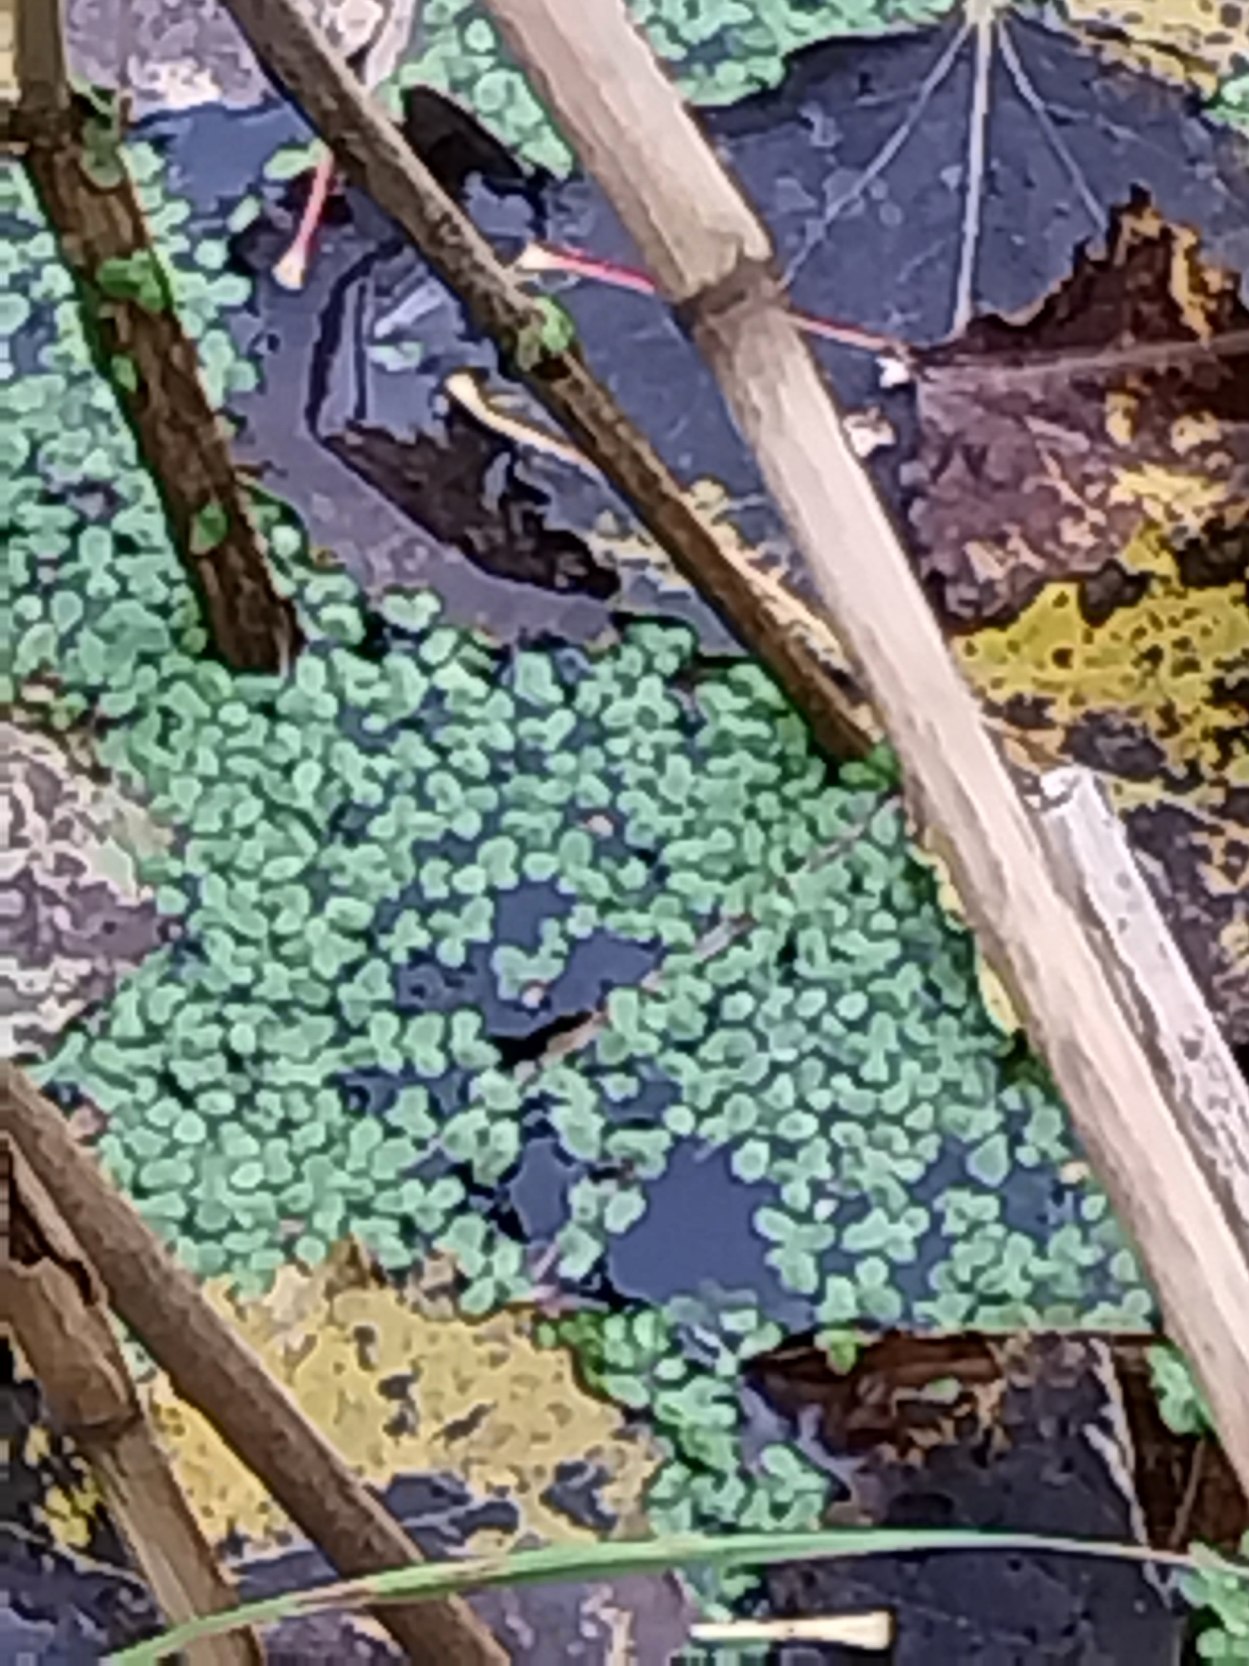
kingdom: Plantae
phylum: Tracheophyta
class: Liliopsida
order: Alismatales
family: Araceae
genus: Lemna
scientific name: Lemna minor
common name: Liden andemad
